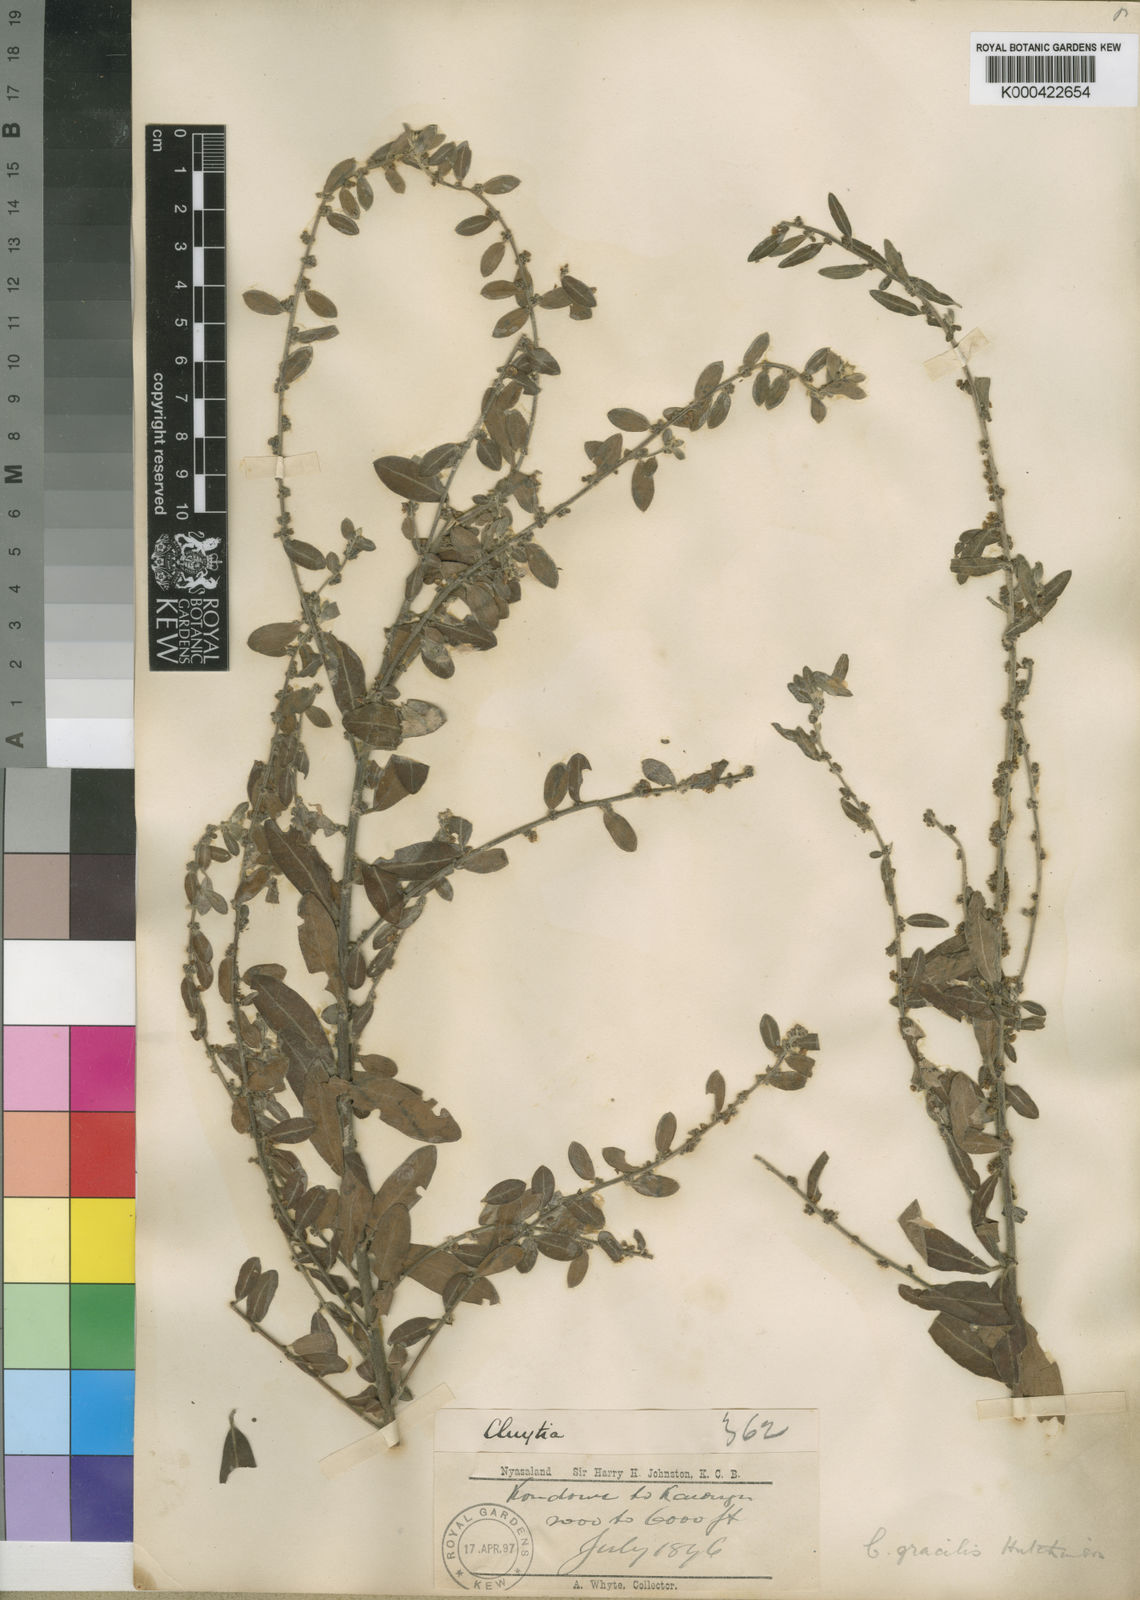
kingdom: Plantae
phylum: Tracheophyta
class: Magnoliopsida
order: Malpighiales
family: Peraceae
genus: Clutia
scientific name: Clutia paxii
